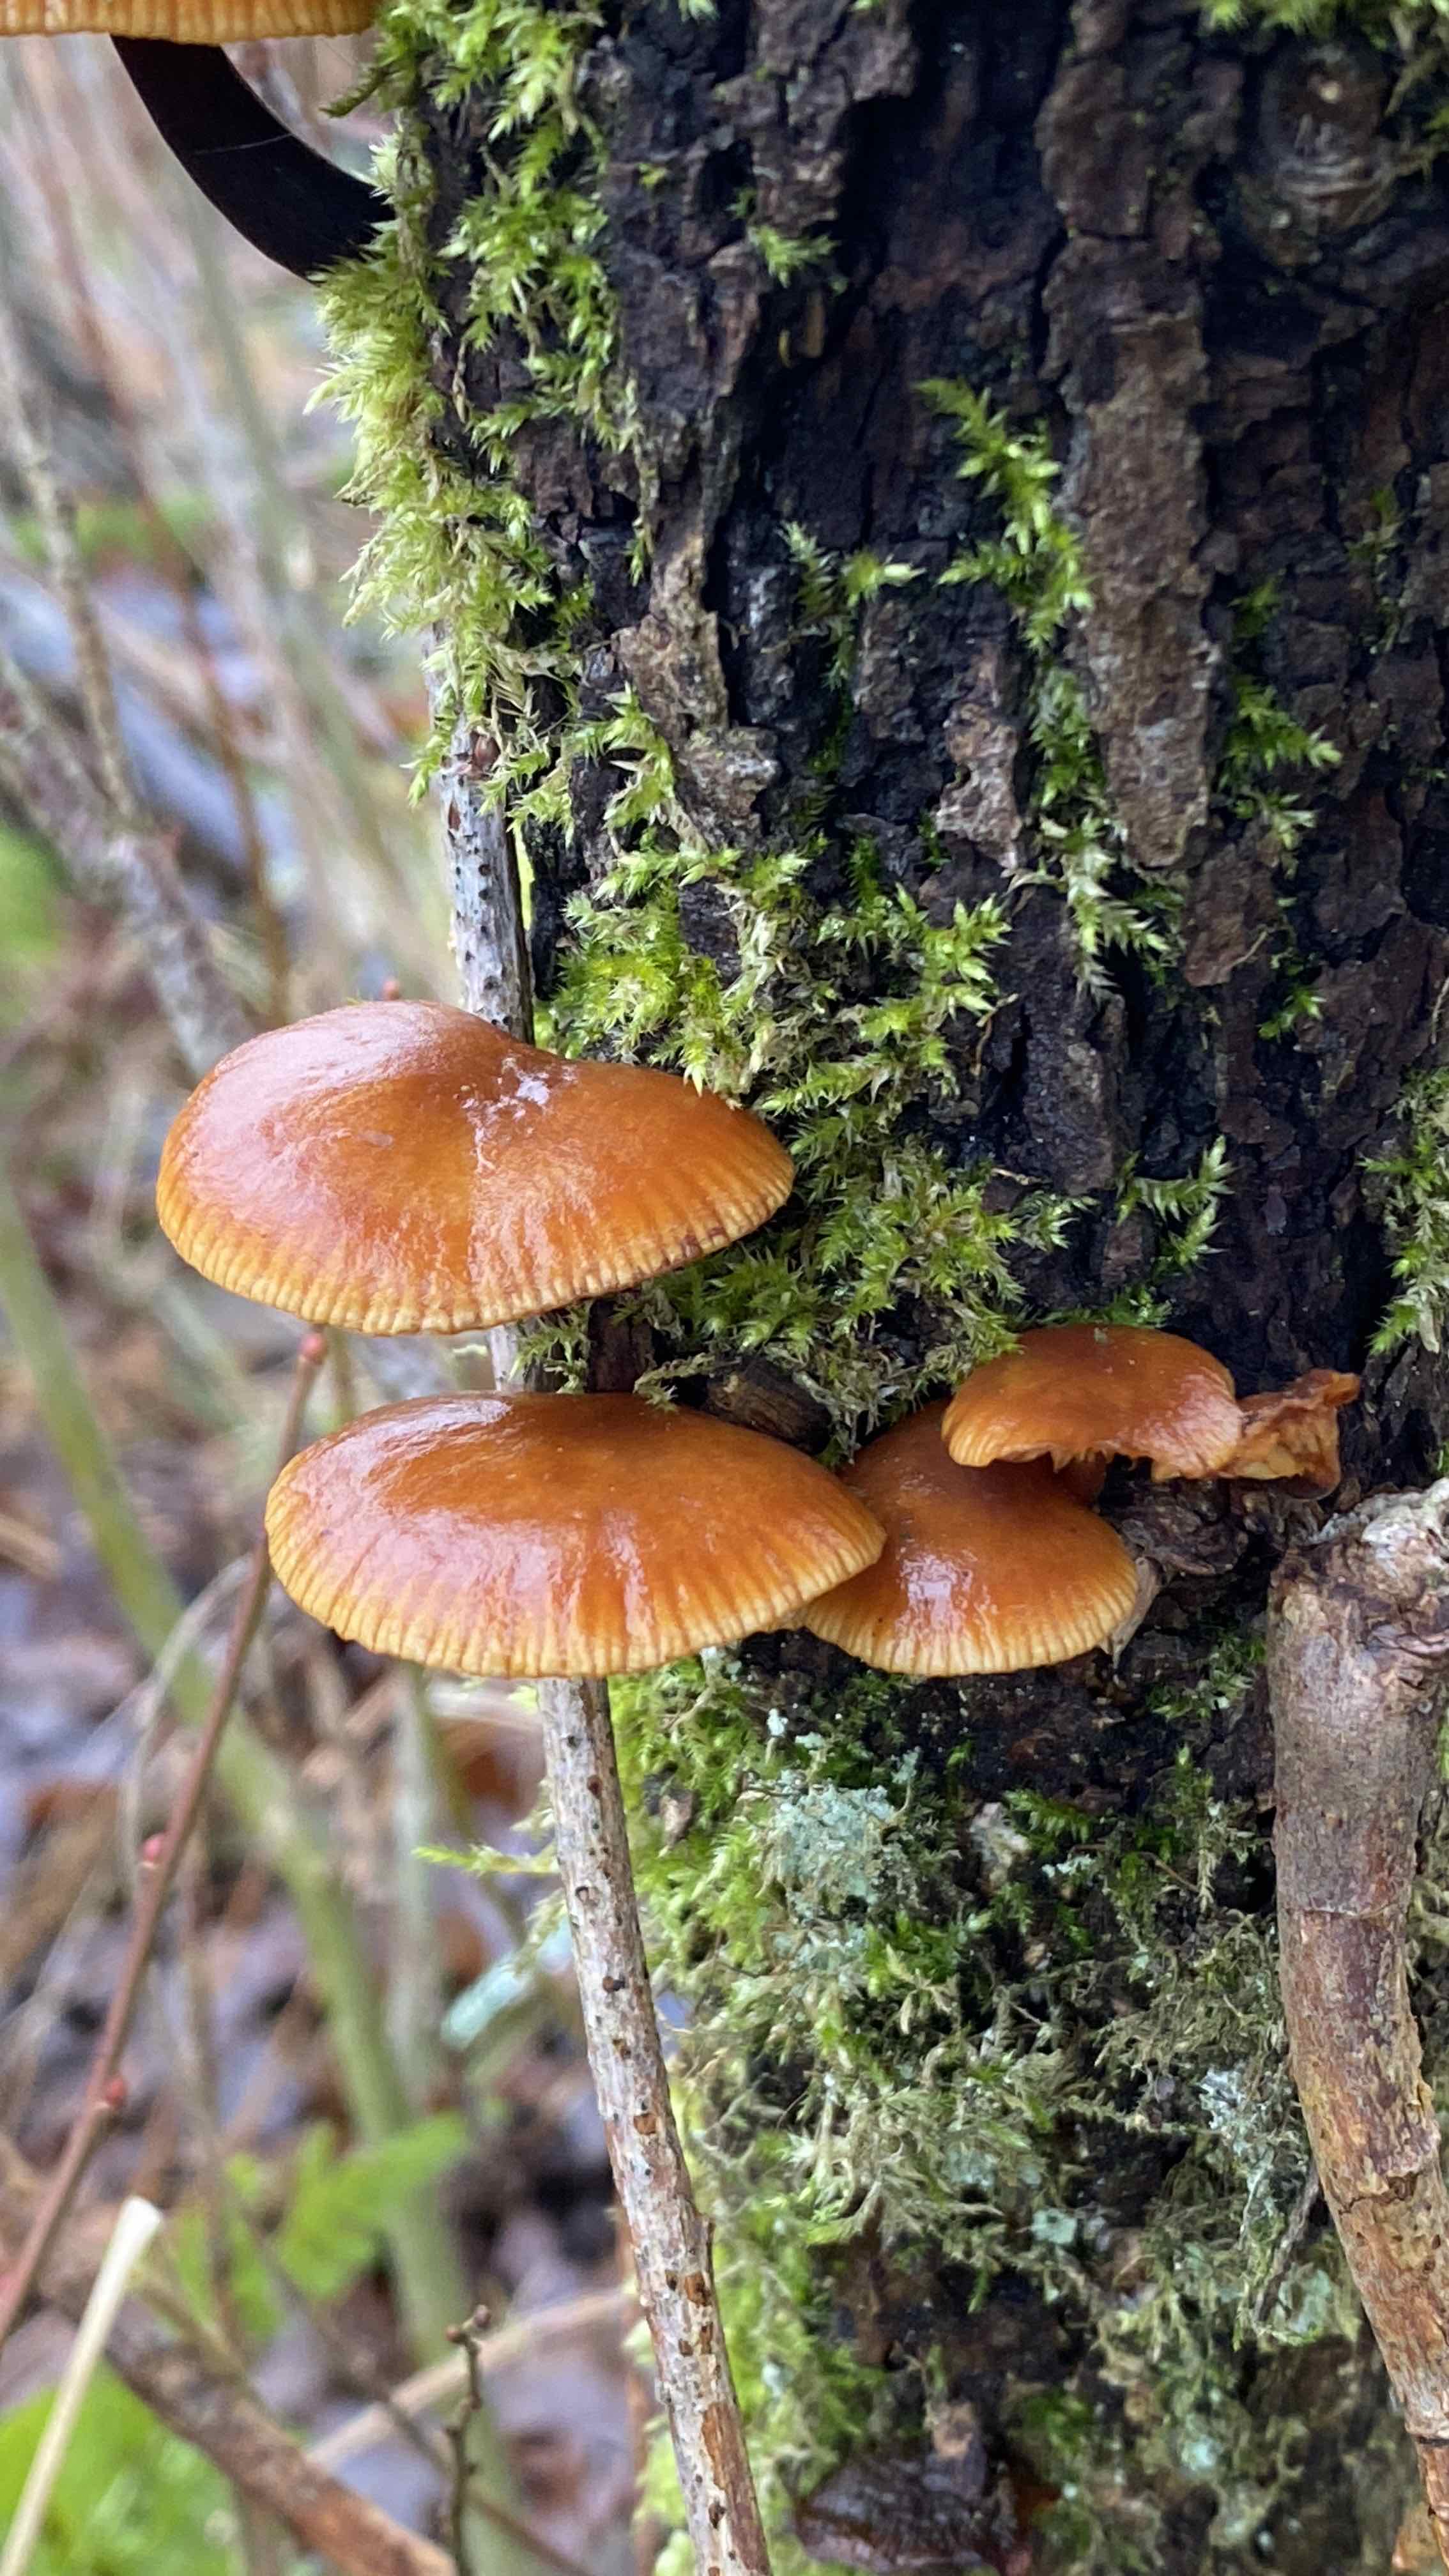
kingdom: Fungi
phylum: Basidiomycota
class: Agaricomycetes
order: Agaricales
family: Physalacriaceae
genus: Flammulina
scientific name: Flammulina
